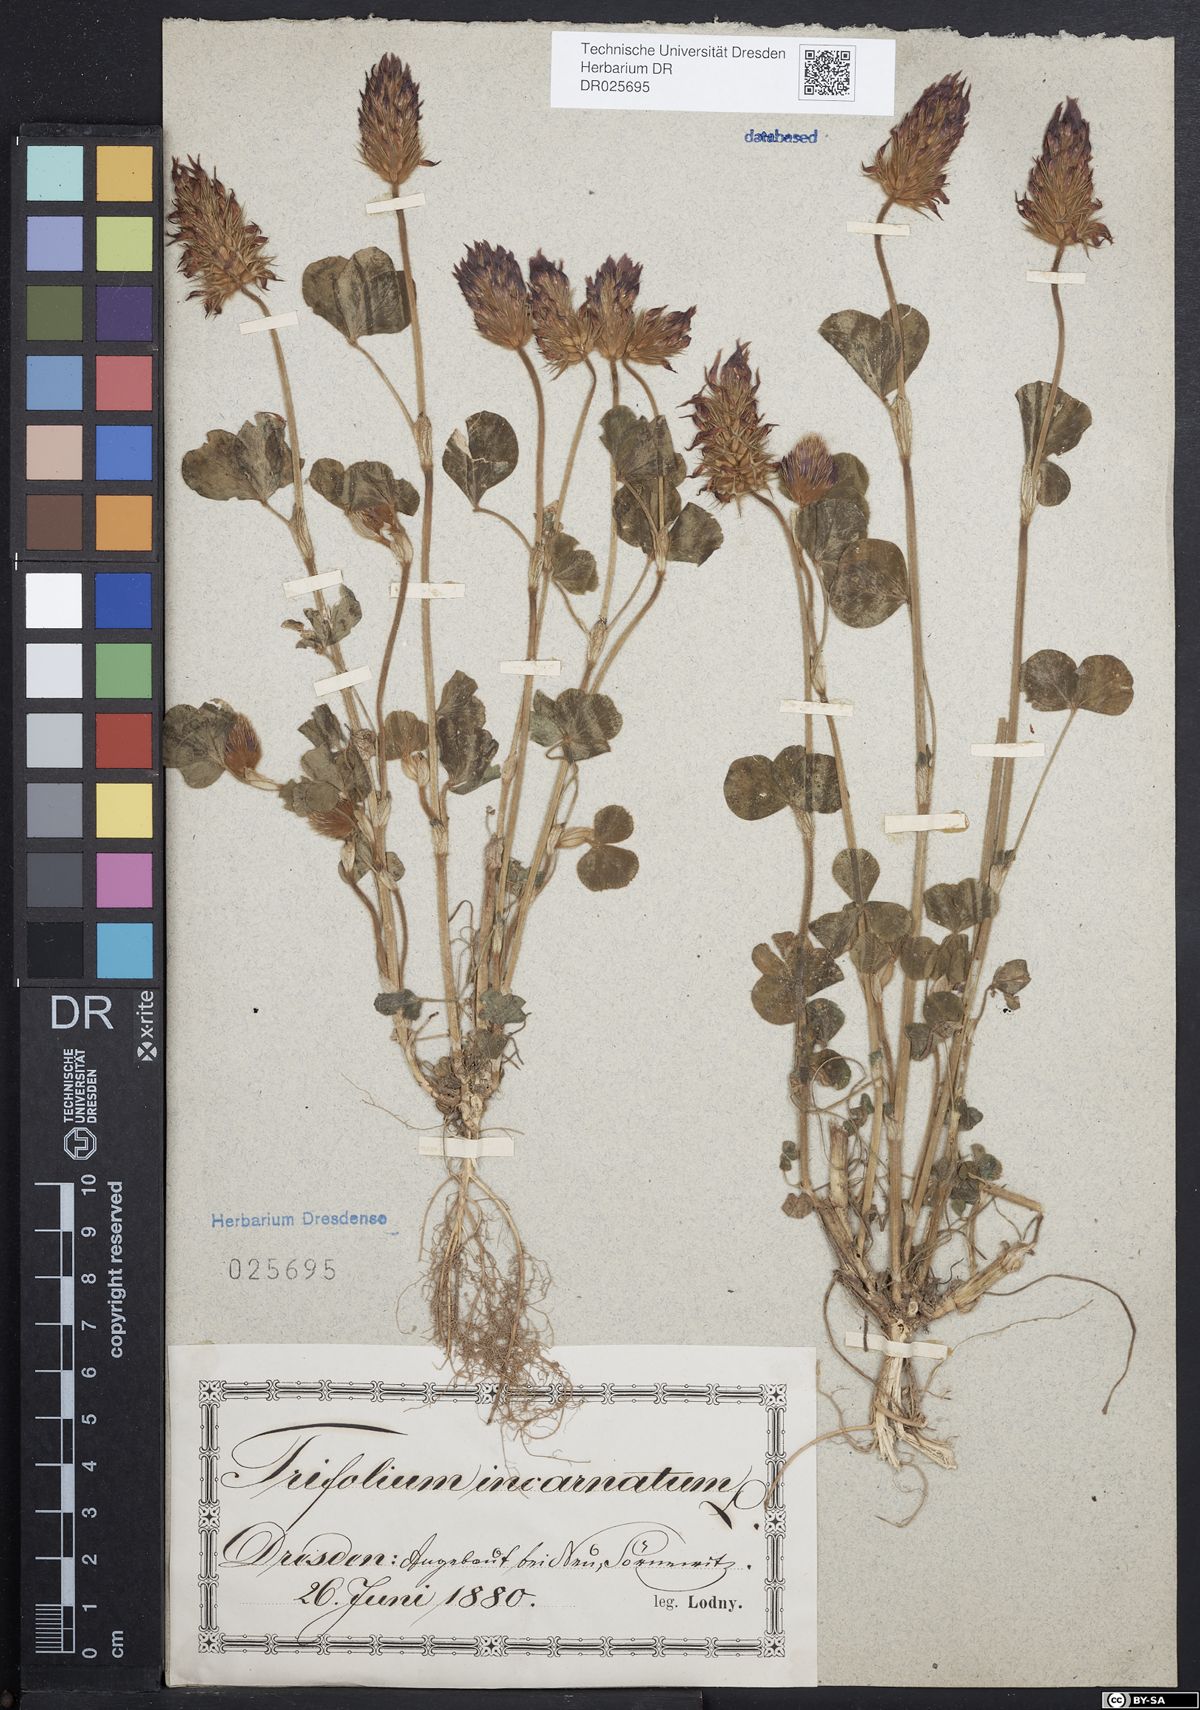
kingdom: Plantae
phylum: Tracheophyta
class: Magnoliopsida
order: Fabales
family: Fabaceae
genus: Trifolium
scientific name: Trifolium incarnatum
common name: Crimson clover
